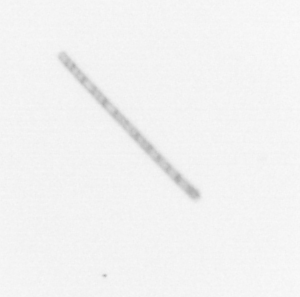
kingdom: Chromista
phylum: Ochrophyta
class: Bacillariophyceae
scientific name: Bacillariophyceae
